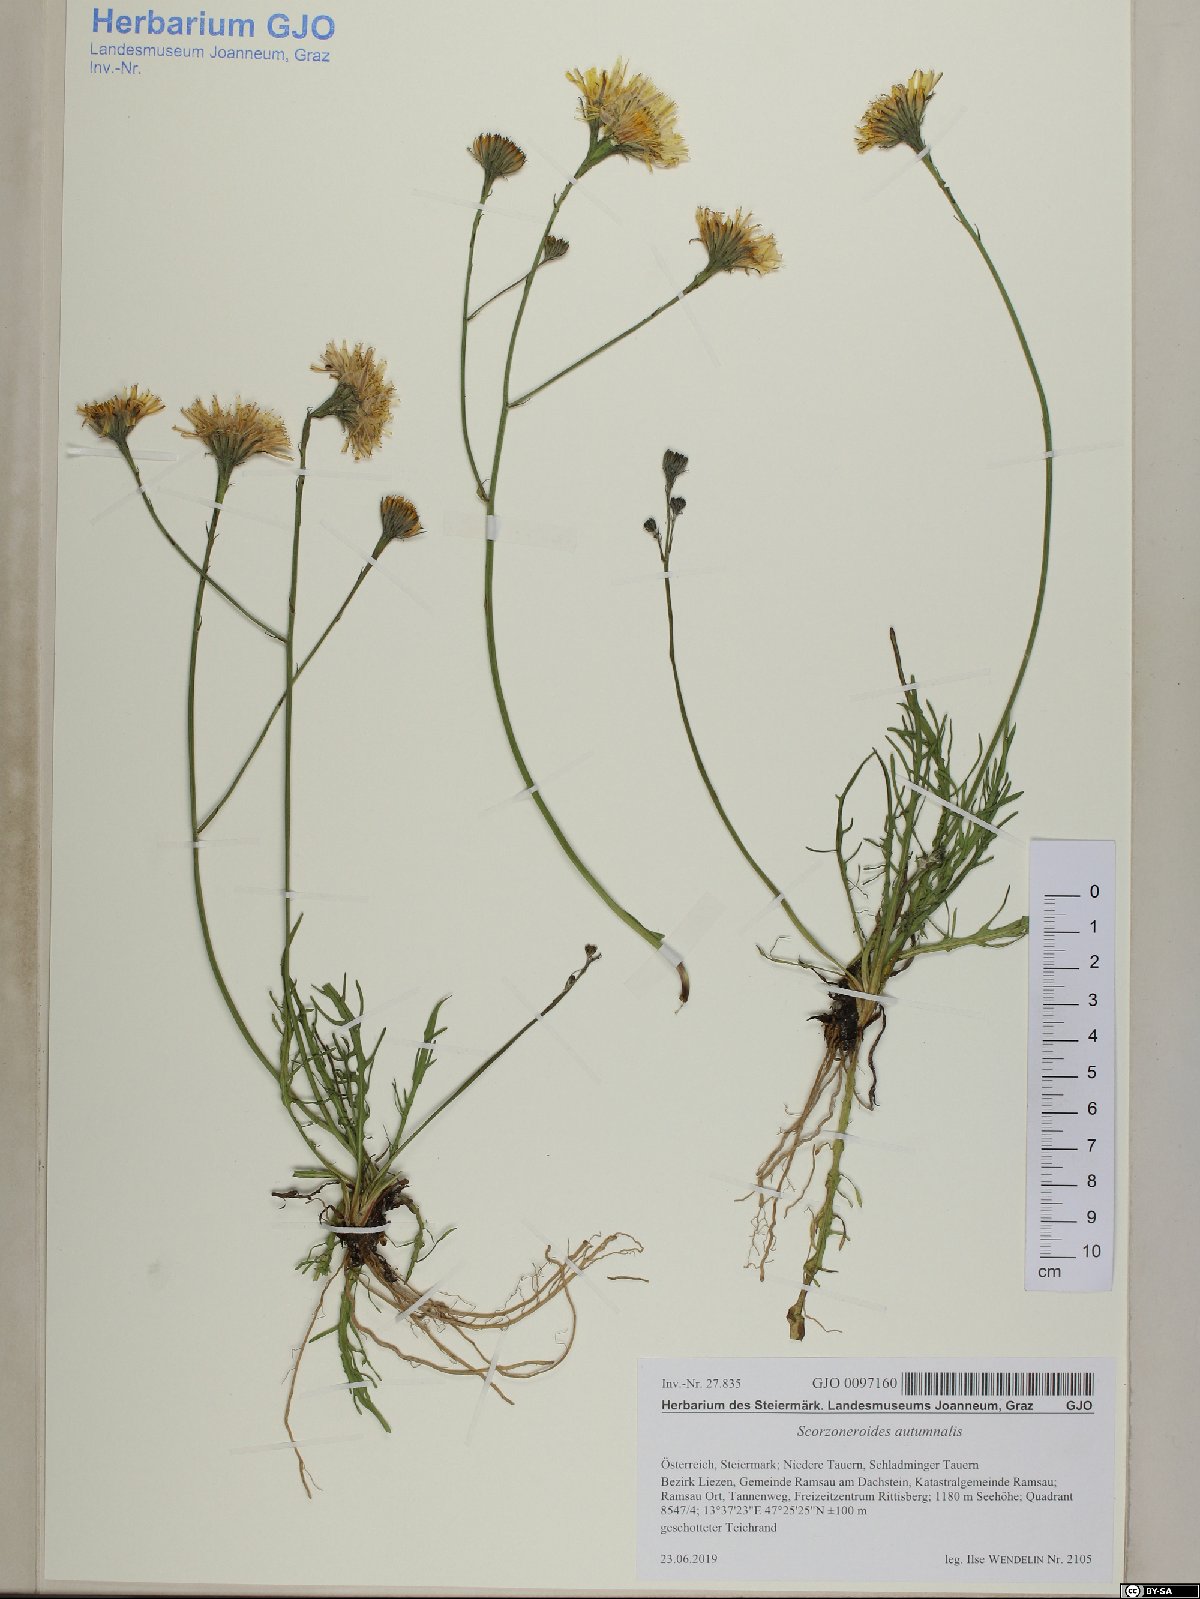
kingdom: Plantae
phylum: Tracheophyta
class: Magnoliopsida
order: Asterales
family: Asteraceae
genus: Scorzoneroides
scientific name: Scorzoneroides autumnalis
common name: Autumn hawkbit
